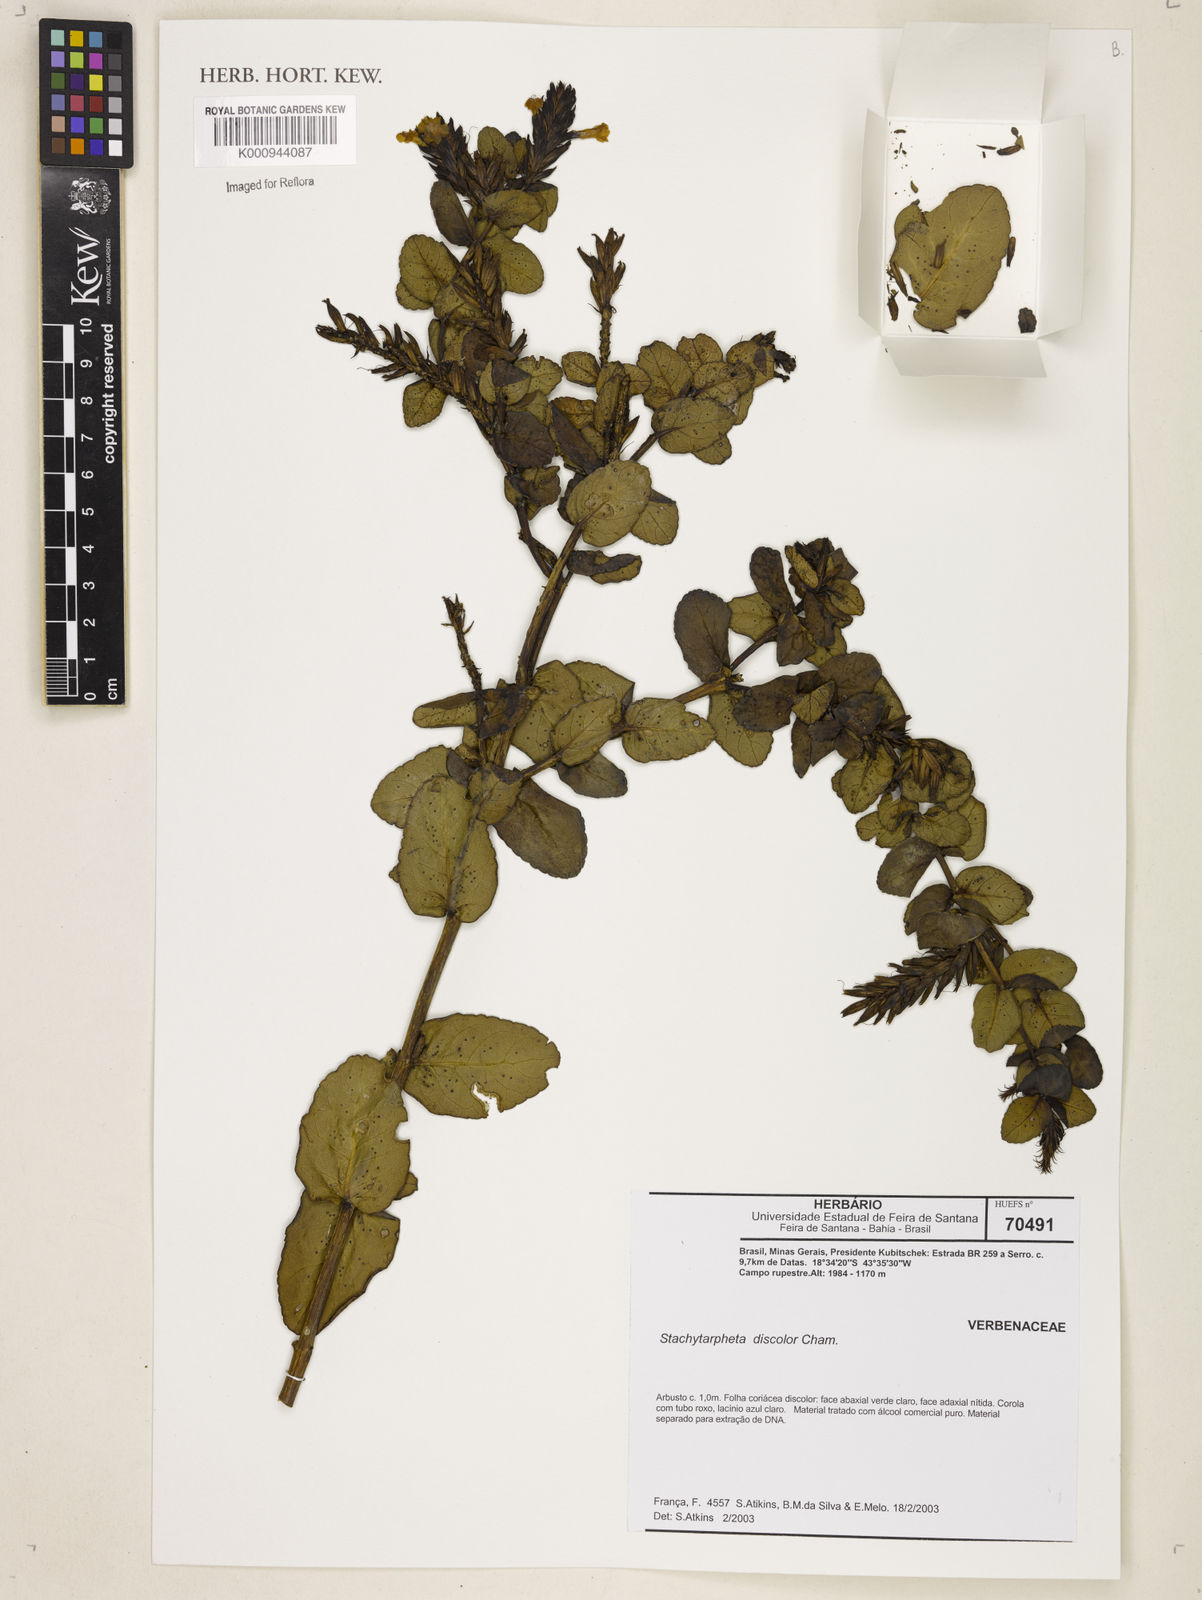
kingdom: Plantae
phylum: Tracheophyta
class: Magnoliopsida
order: Lamiales
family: Verbenaceae
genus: Stachytarpheta
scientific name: Stachytarpheta discolor
